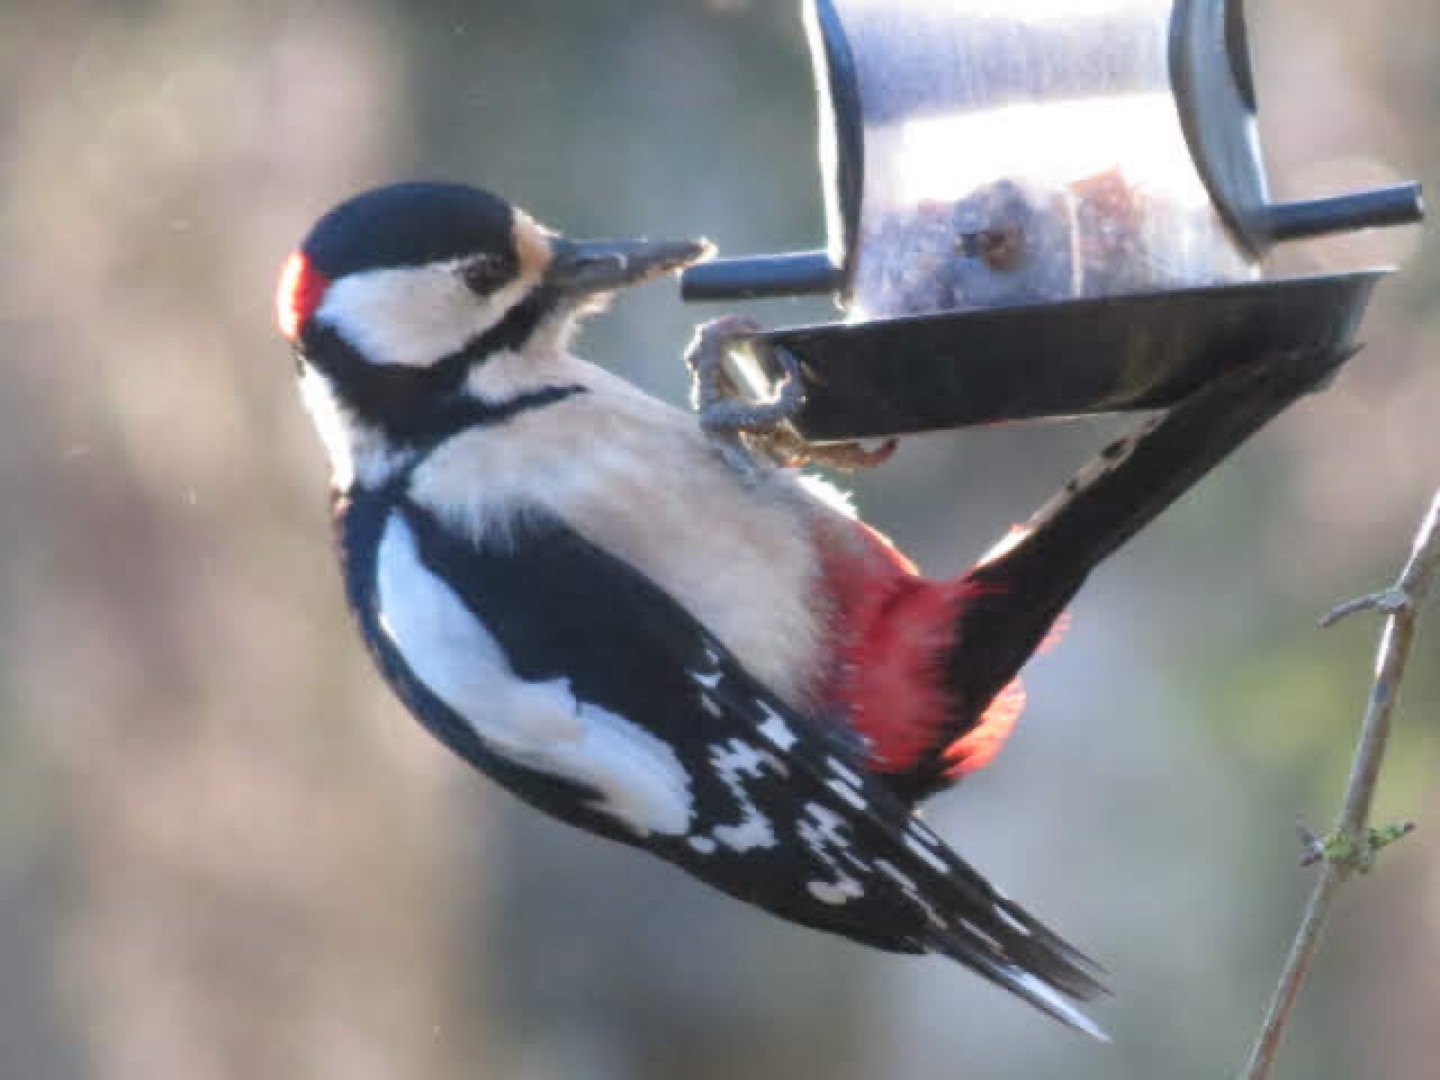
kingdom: Animalia
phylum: Chordata
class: Aves
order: Piciformes
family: Picidae
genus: Dendrocopos
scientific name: Dendrocopos major
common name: Stor flagspætte
